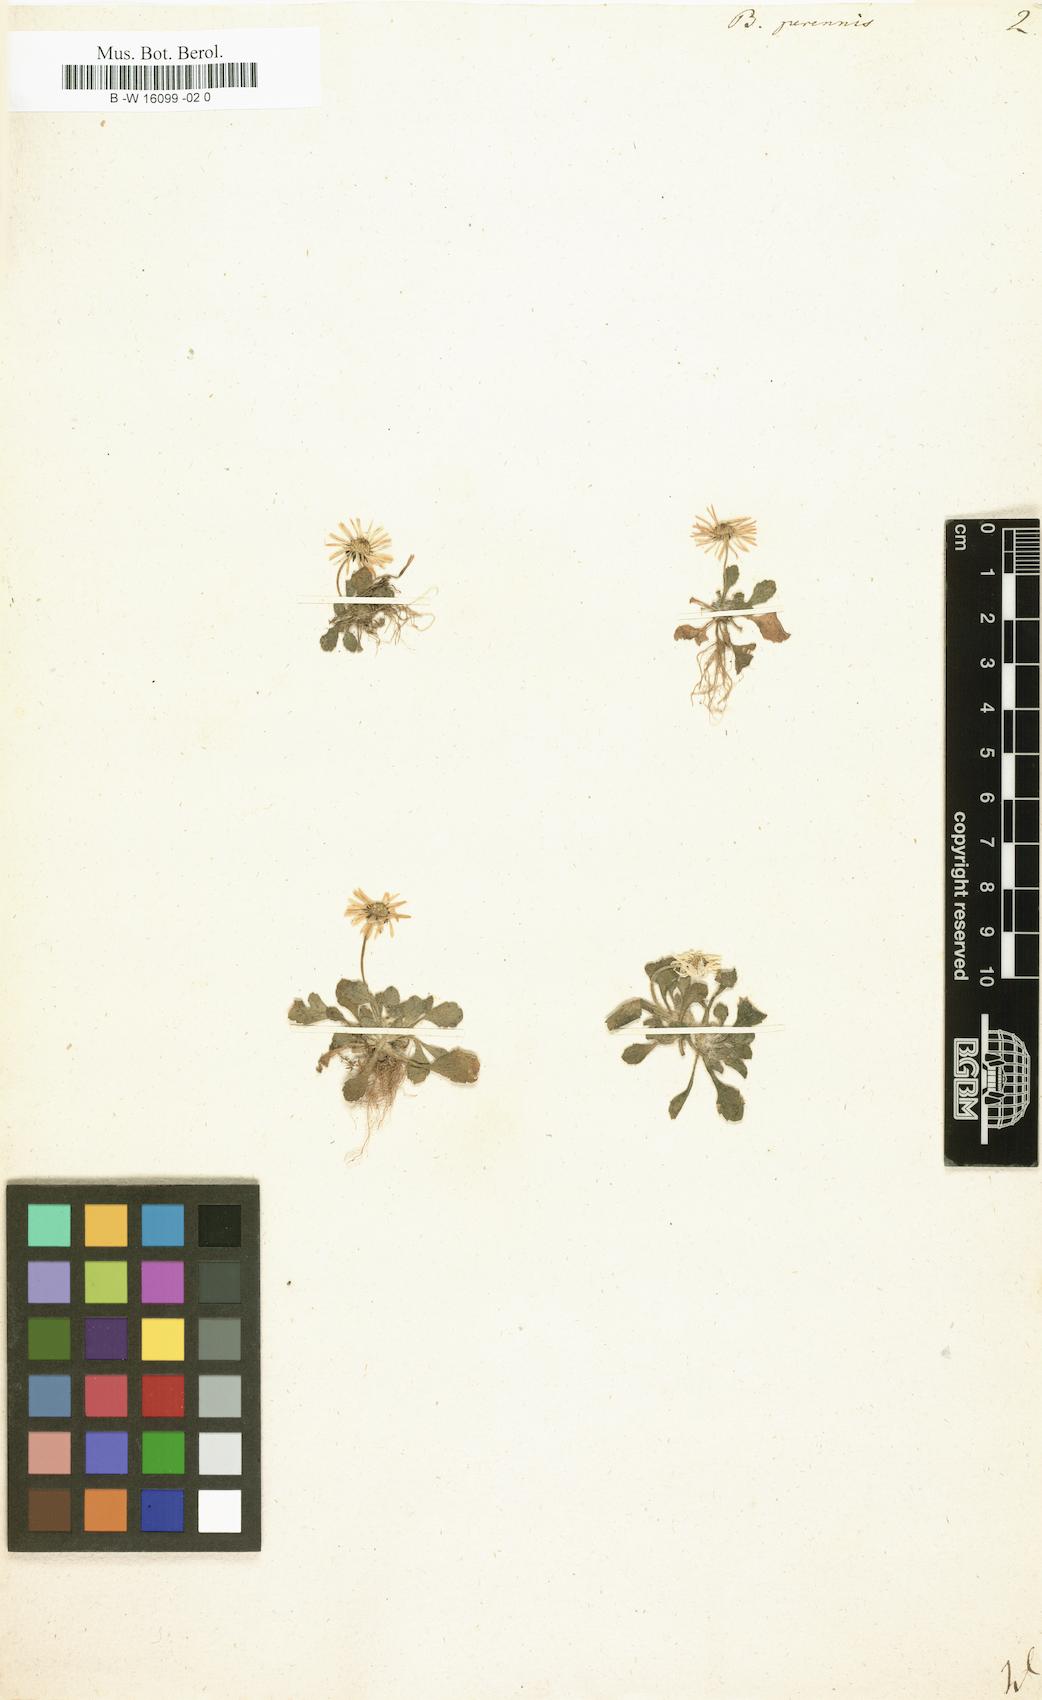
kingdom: Plantae
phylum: Tracheophyta
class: Magnoliopsida
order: Asterales
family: Asteraceae
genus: Bellis
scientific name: Bellis perennis
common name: Lawndaisy
